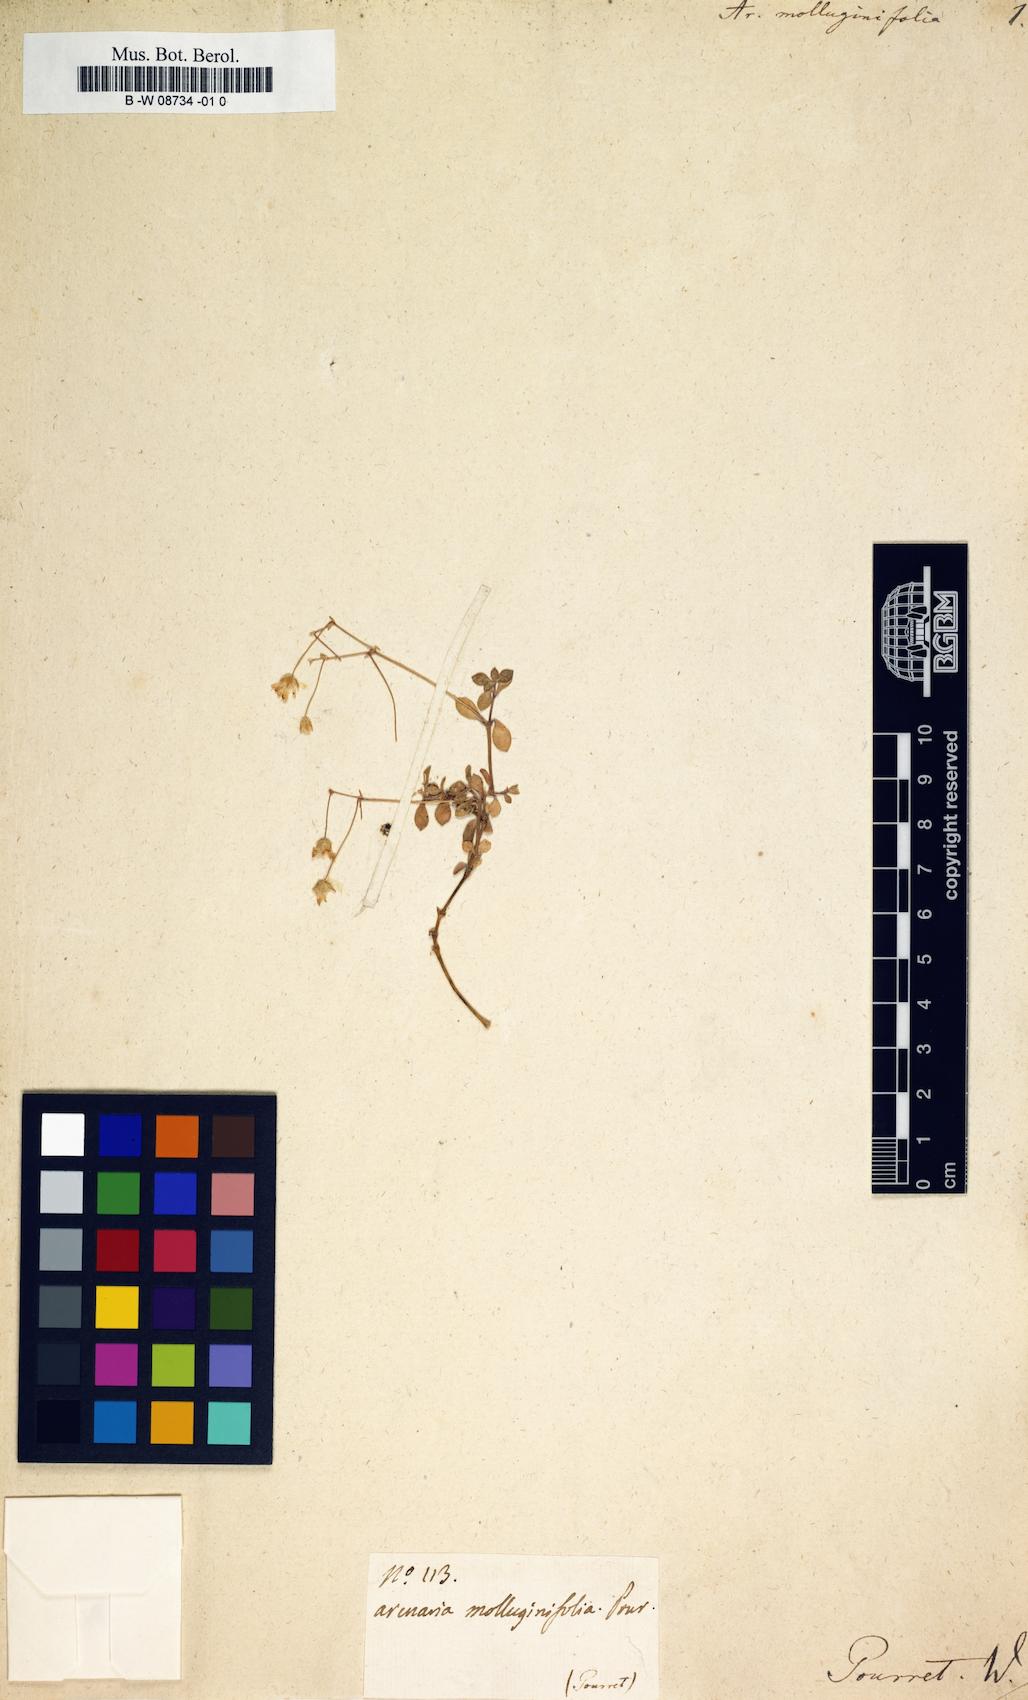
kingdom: Plantae
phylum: Tracheophyta
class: Magnoliopsida
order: Caryophyllales
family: Caryophyllaceae
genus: Arenaria
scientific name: Arenaria molluginifolia
